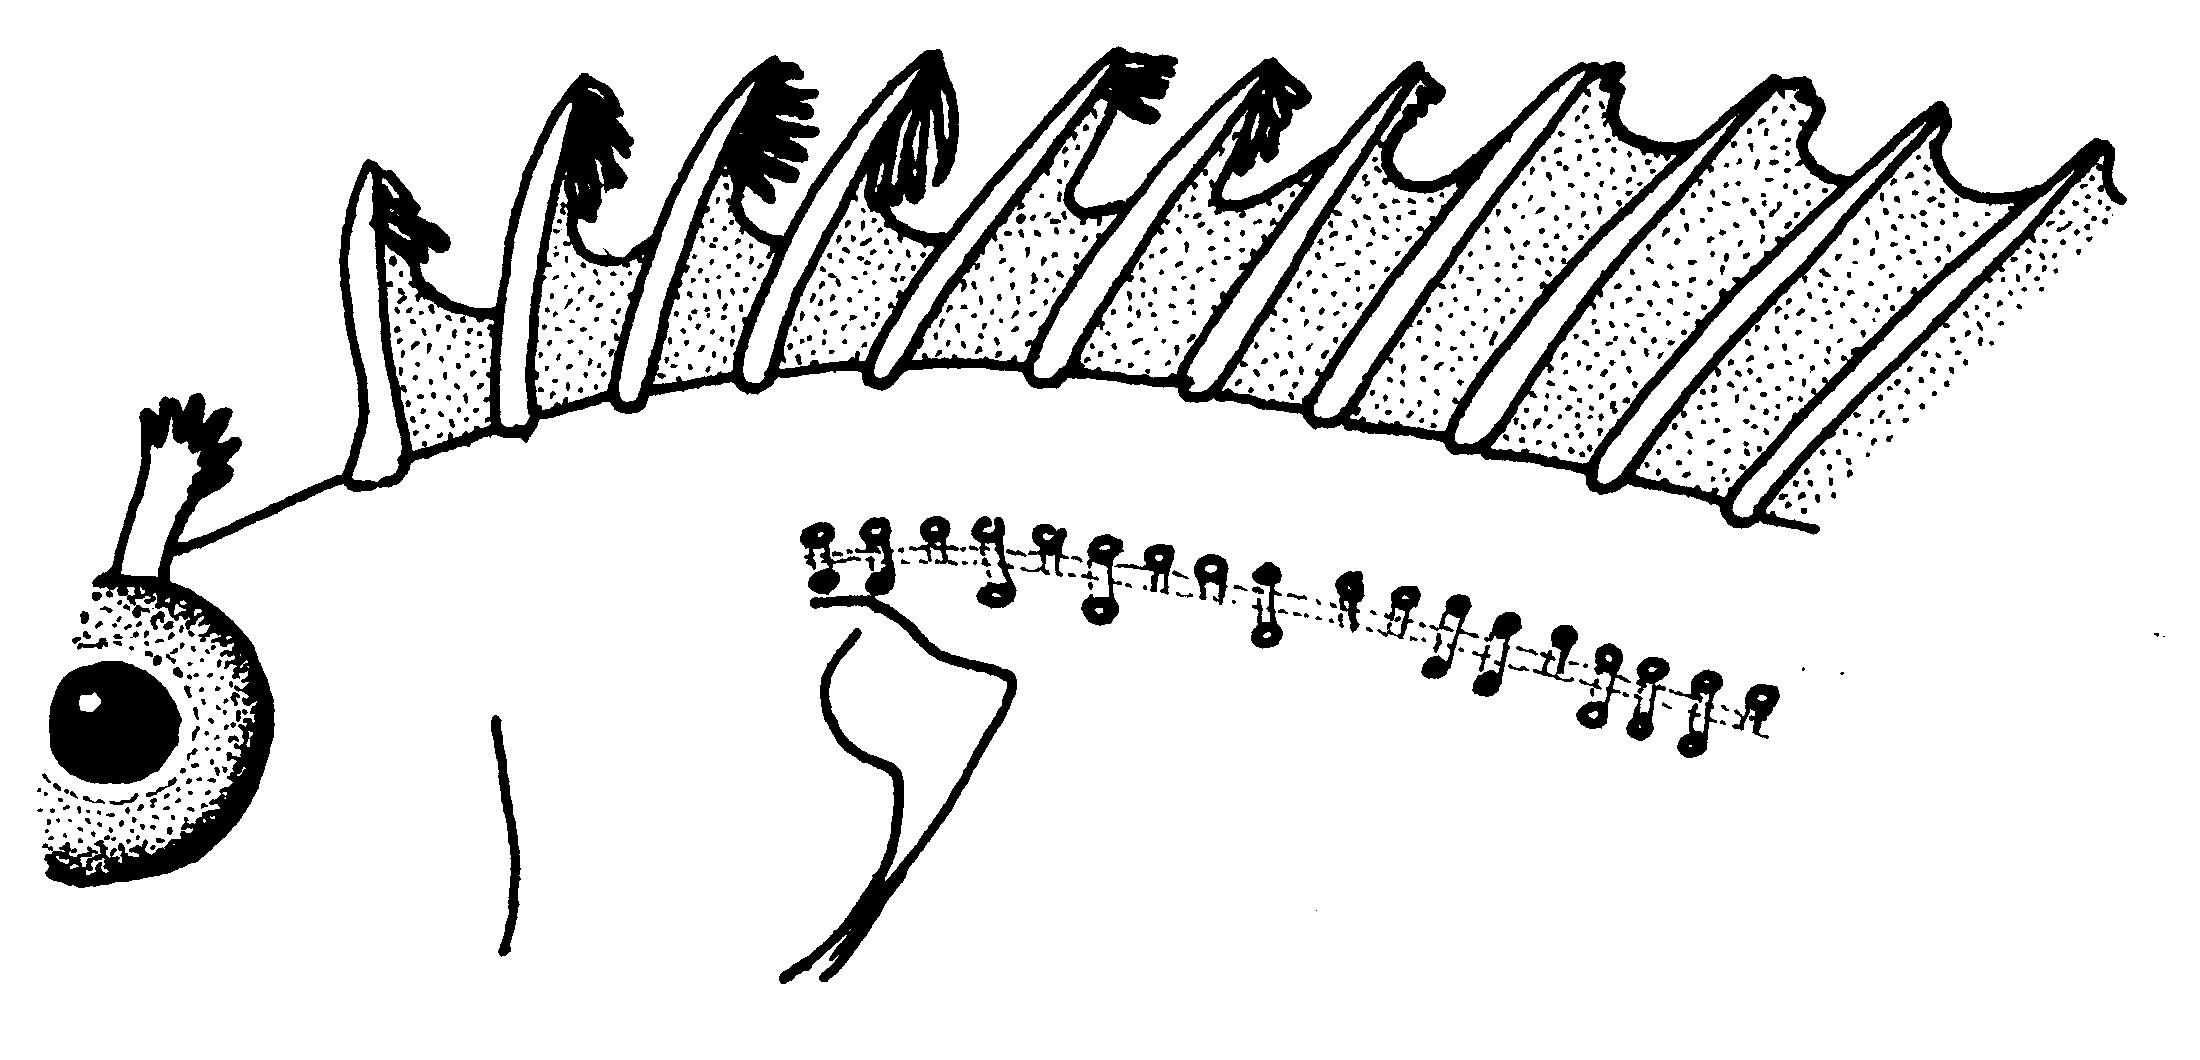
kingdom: Animalia
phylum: Chordata
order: Perciformes
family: Clinidae
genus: Clinus
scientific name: Clinus nematopterus
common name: Chinese klipfish
